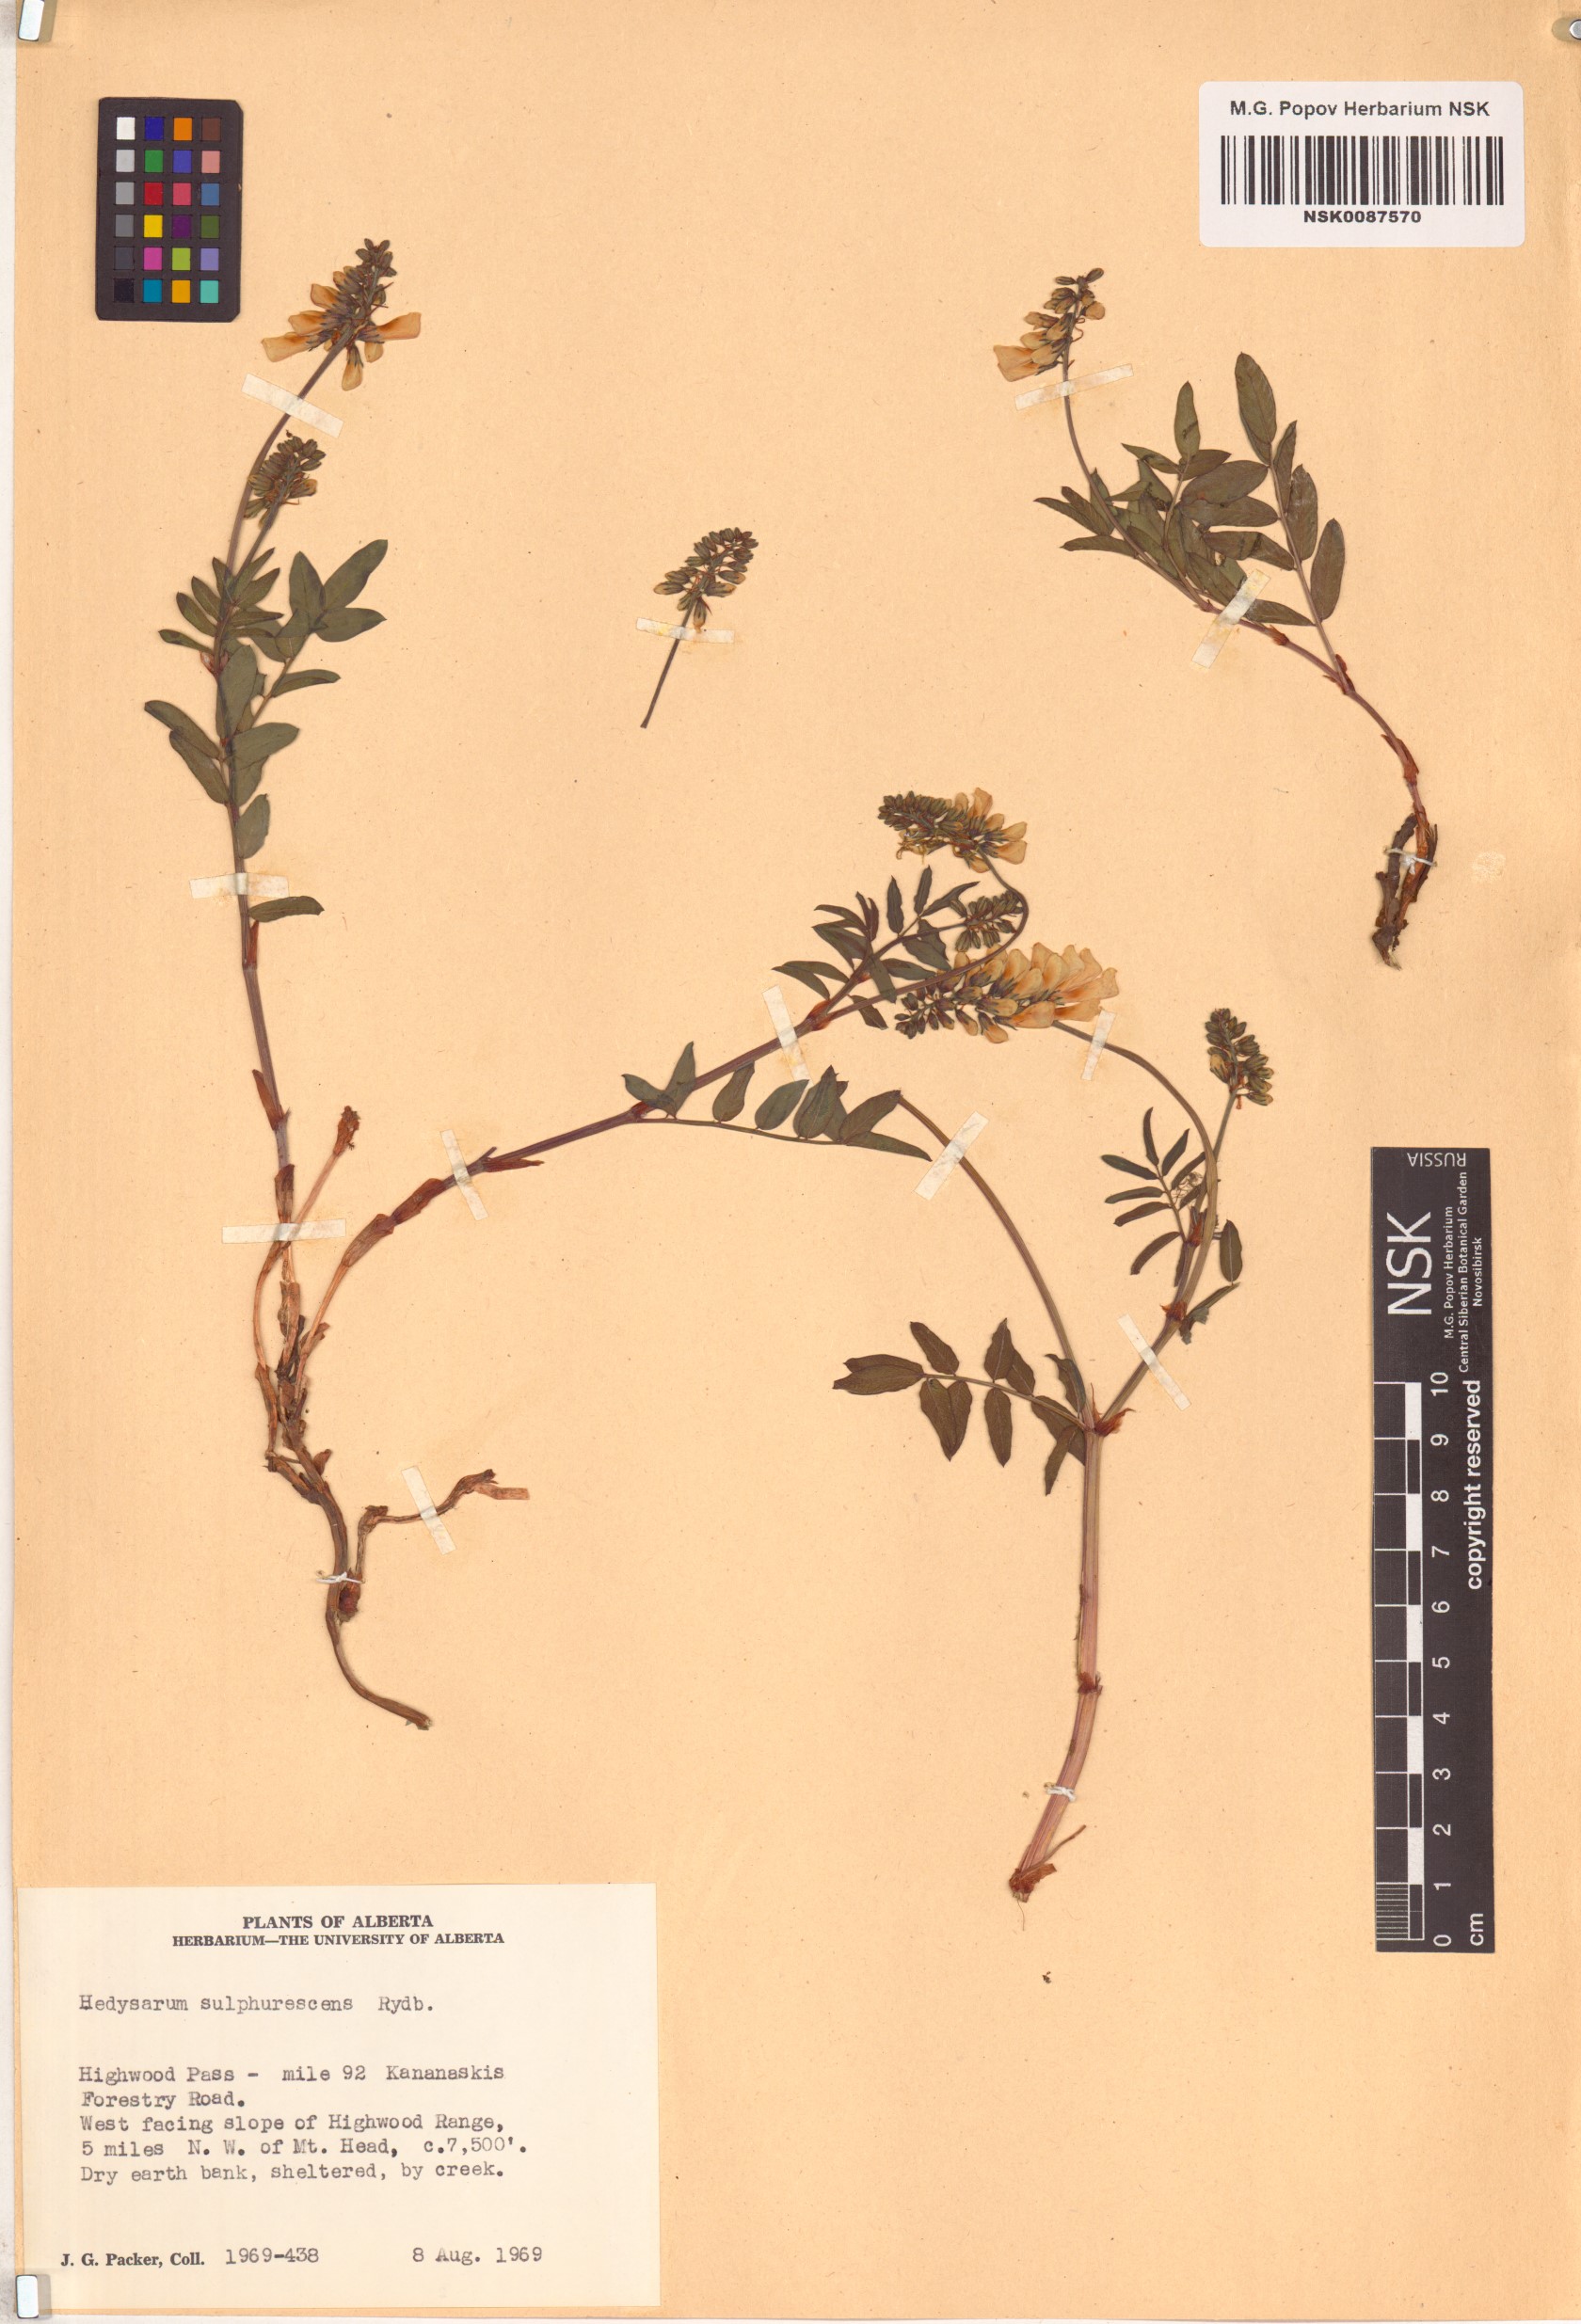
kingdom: Plantae
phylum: Tracheophyta
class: Magnoliopsida
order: Fabales
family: Fabaceae
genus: Hedysarum
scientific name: Hedysarum sulphurescens
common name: Sulphur hedysarum
